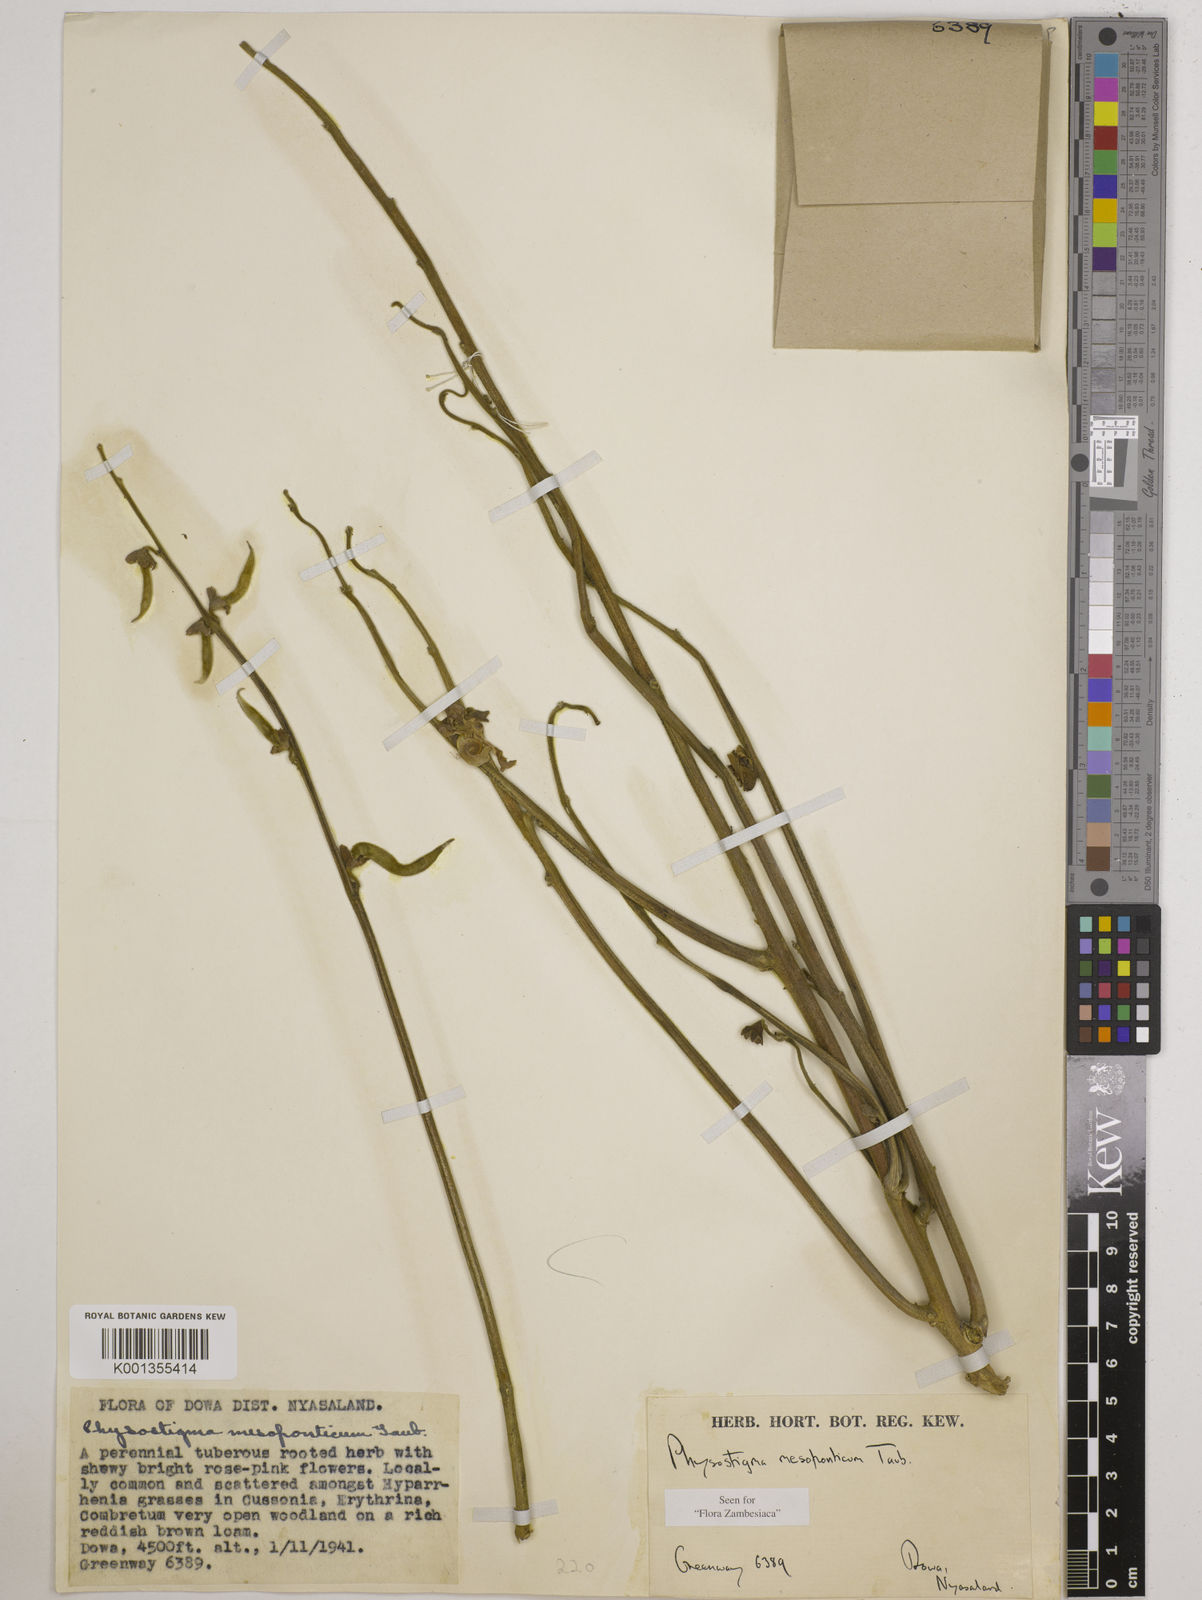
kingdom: Plantae
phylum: Tracheophyta
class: Magnoliopsida
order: Fabales
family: Fabaceae
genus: Physostigma
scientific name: Physostigma mesoponticum
